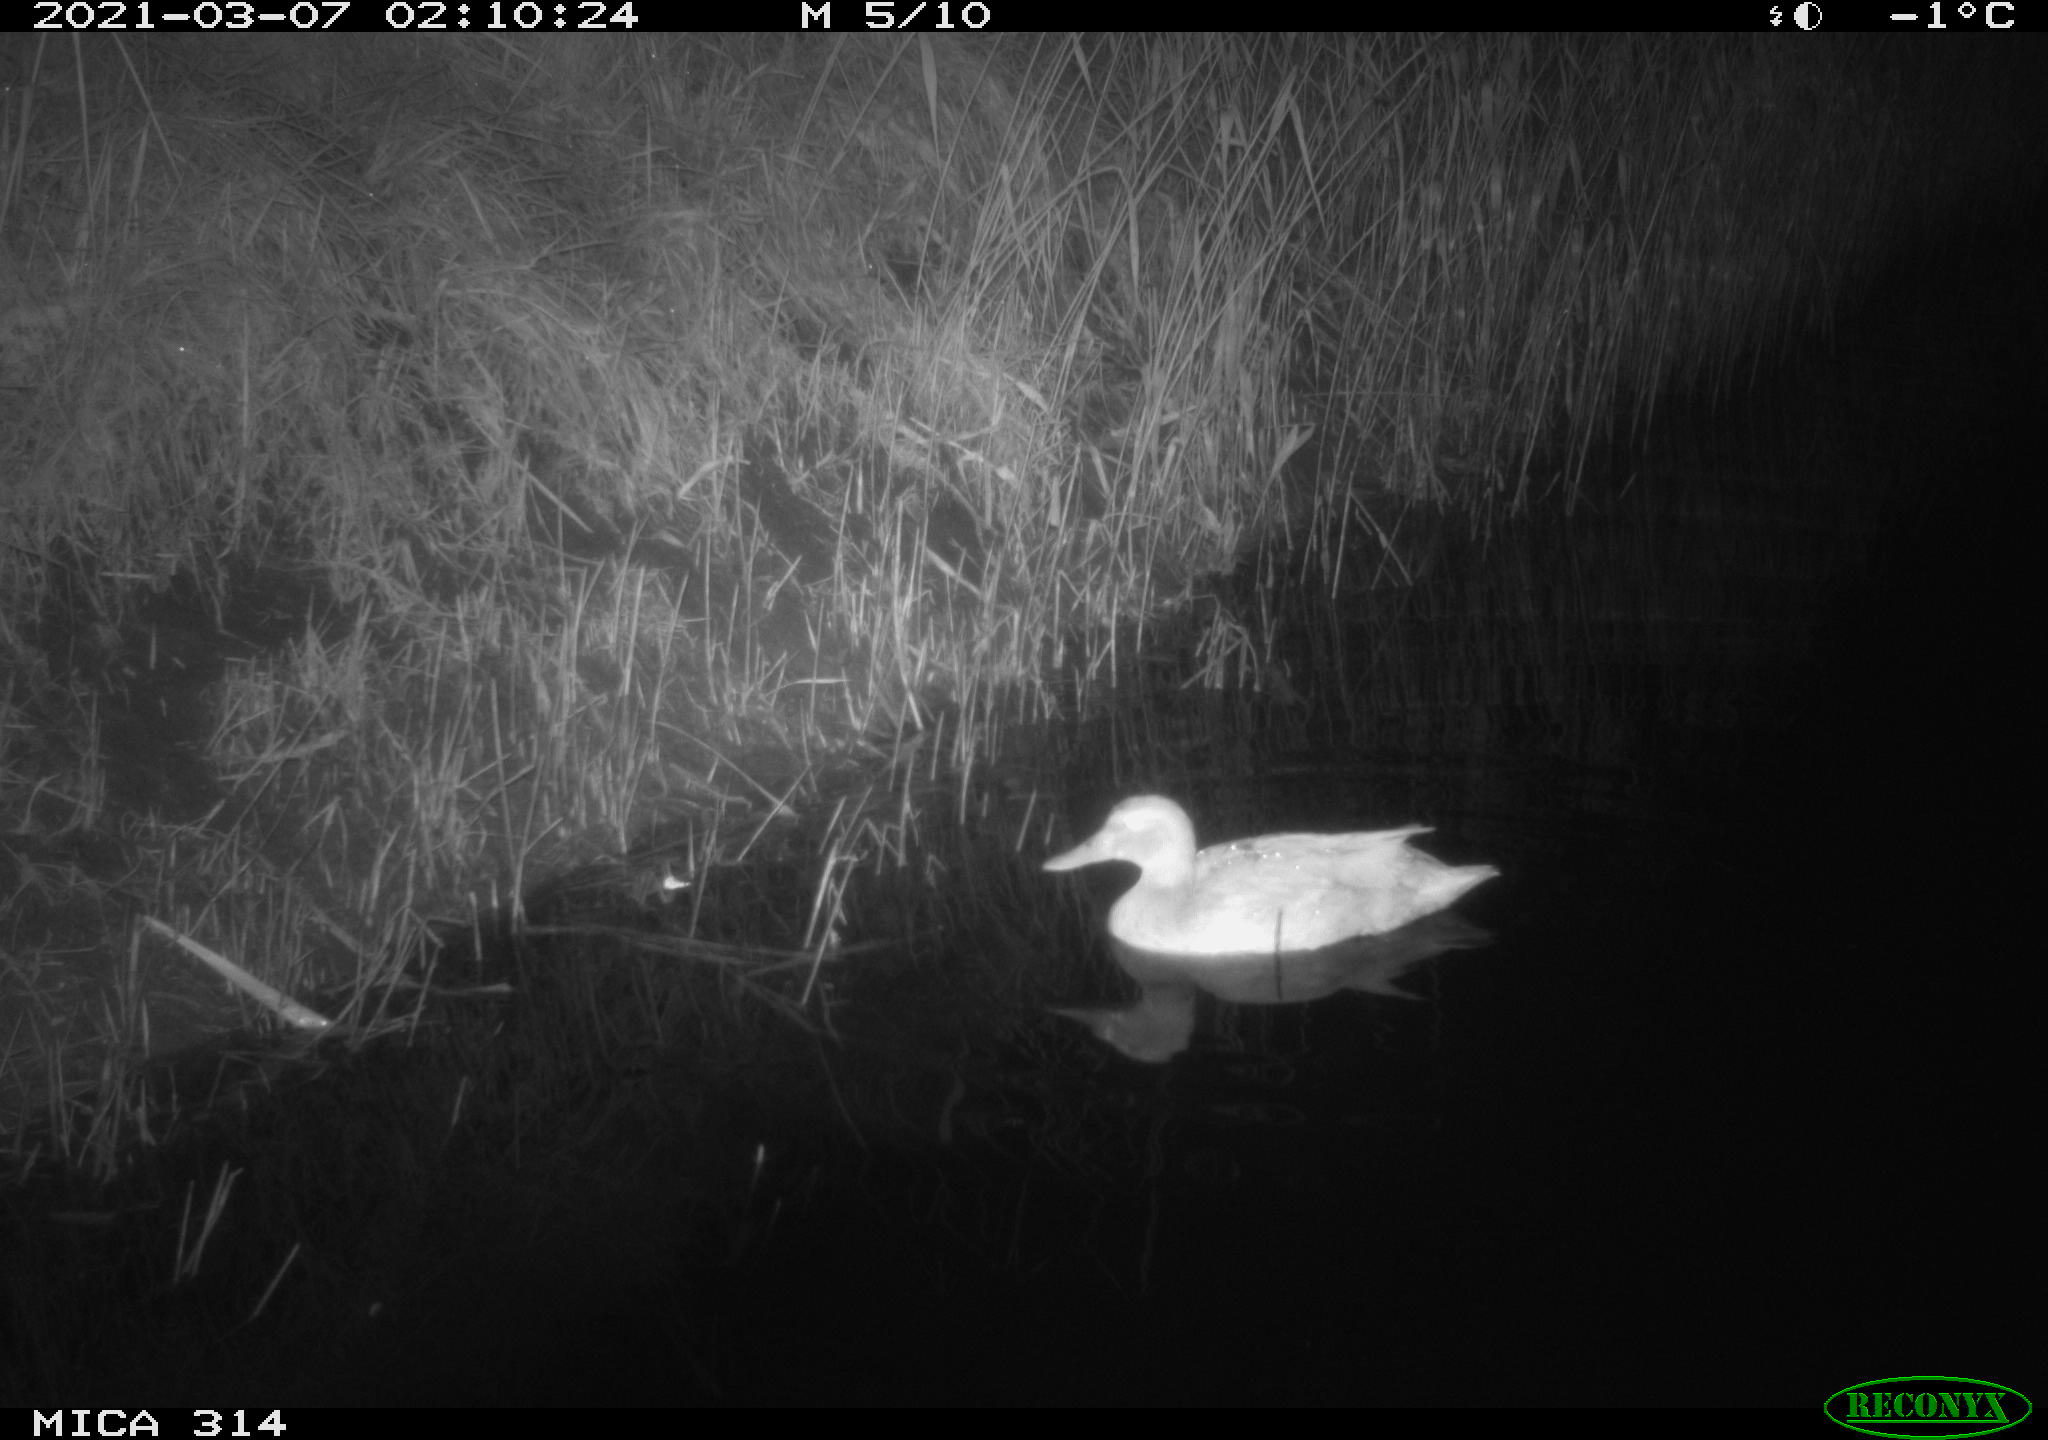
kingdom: Animalia
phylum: Chordata
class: Aves
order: Anseriformes
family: Anatidae
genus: Anas
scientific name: Anas platyrhynchos
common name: Mallard
